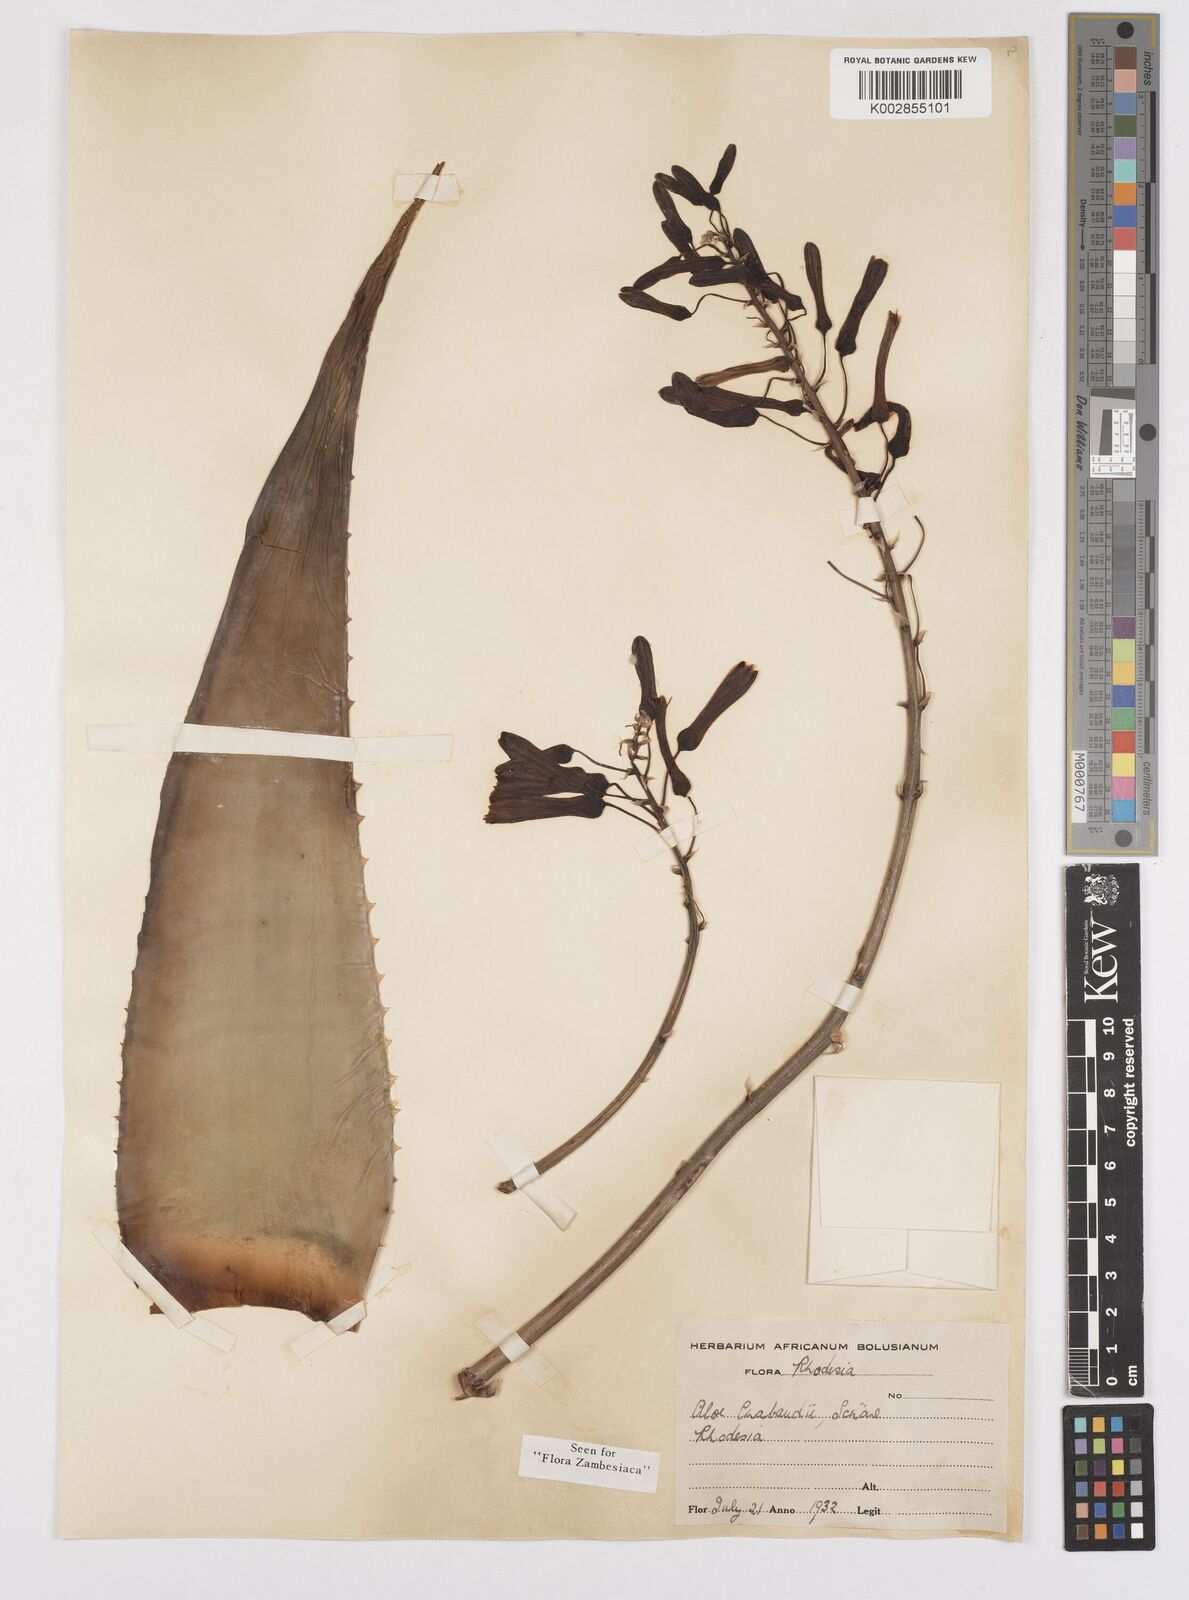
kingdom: Plantae
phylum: Tracheophyta
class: Liliopsida
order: Asparagales
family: Asphodelaceae
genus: Aloe
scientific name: Aloe chabaudii
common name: Chabaud's aloe
